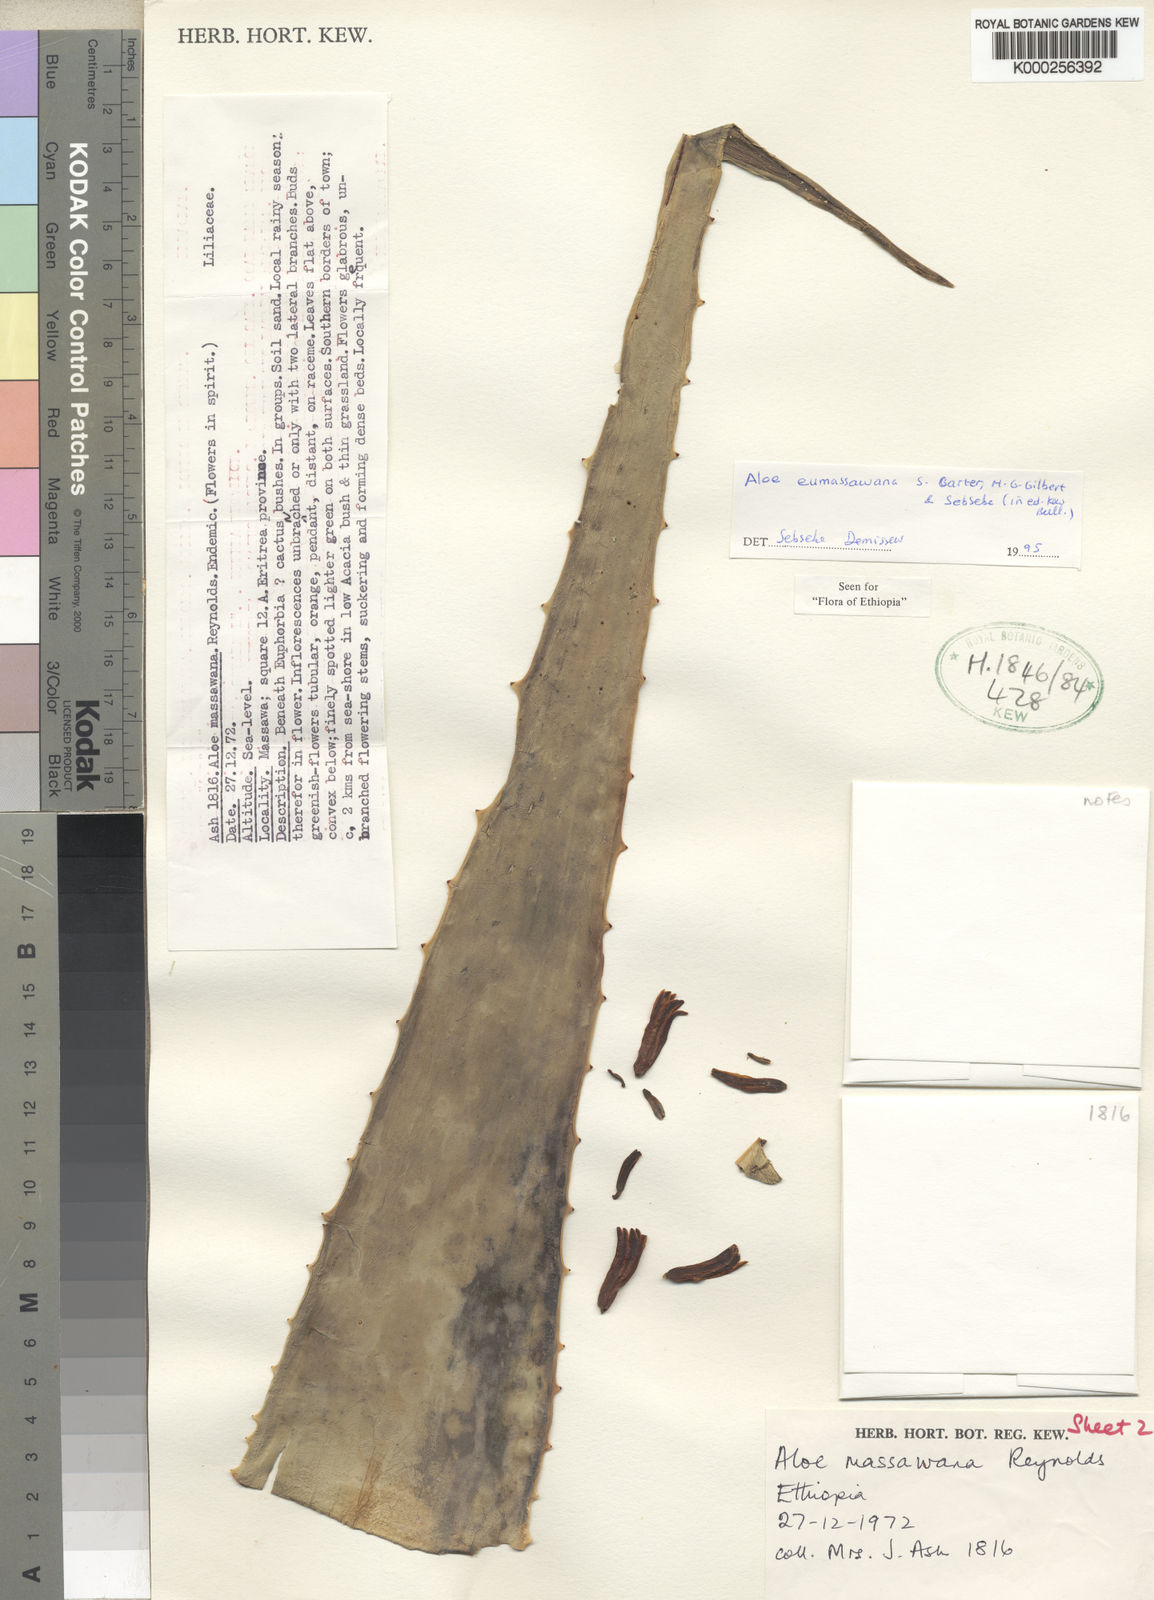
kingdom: Plantae
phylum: Tracheophyta
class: Liliopsida
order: Asparagales
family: Asphodelaceae
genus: Aloe
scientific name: Aloe eumassawana
